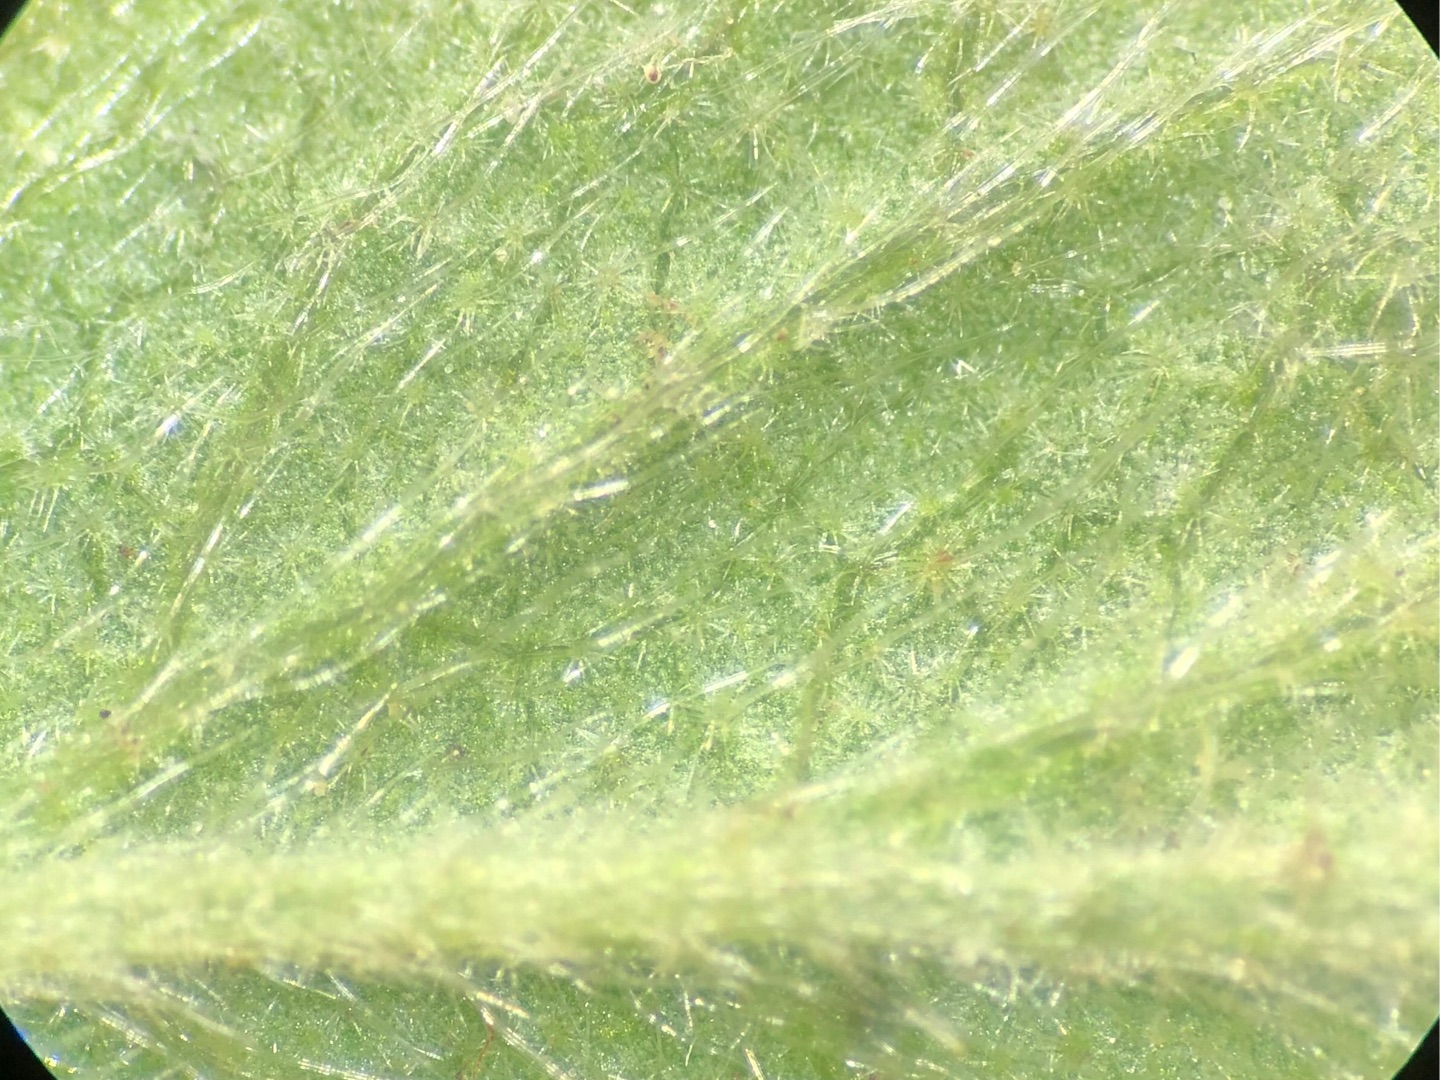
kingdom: Plantae
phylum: Tracheophyta
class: Magnoliopsida
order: Rosales
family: Rosaceae
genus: Potentilla
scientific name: Potentilla subarenaria
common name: Grå vår-potentil
